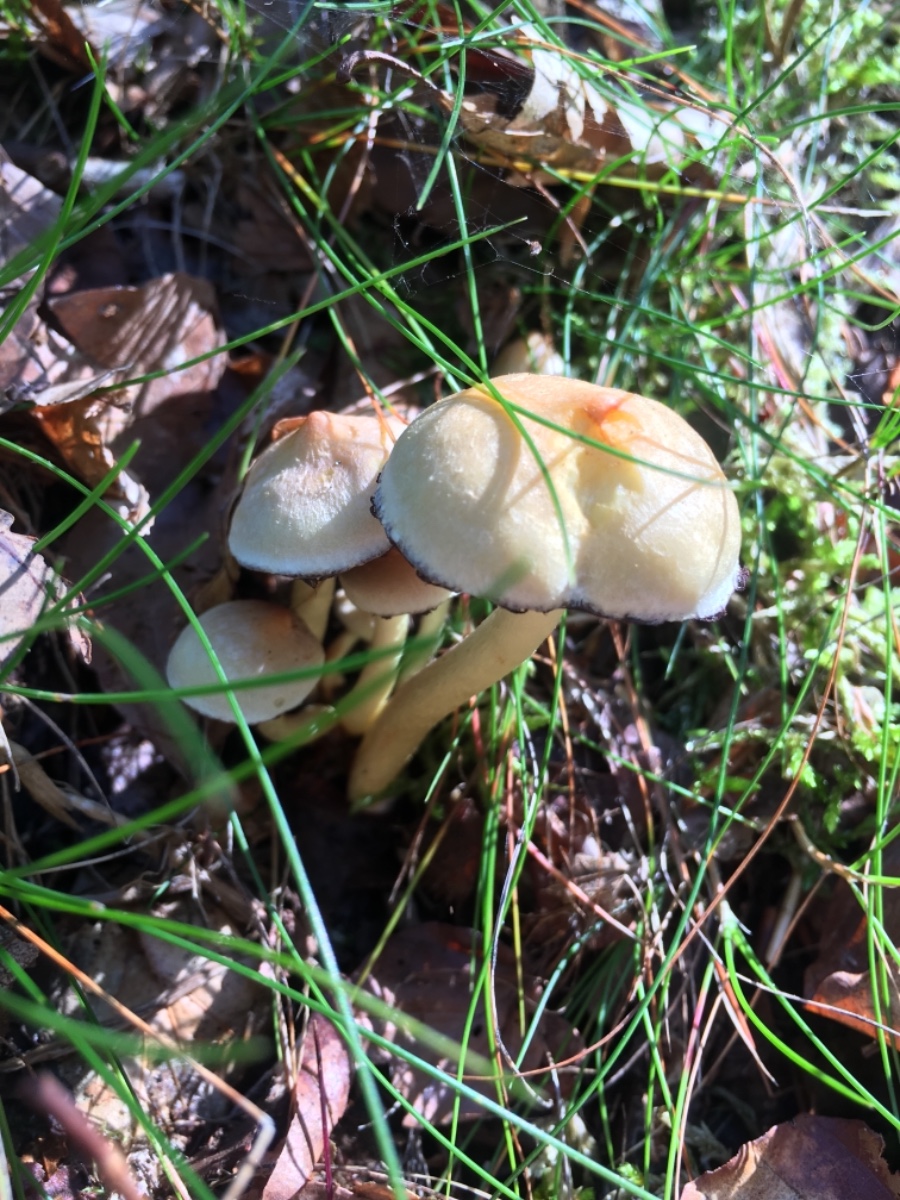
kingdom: Fungi
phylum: Basidiomycota
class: Agaricomycetes
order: Agaricales
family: Strophariaceae
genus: Hypholoma
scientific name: Hypholoma fasciculare
